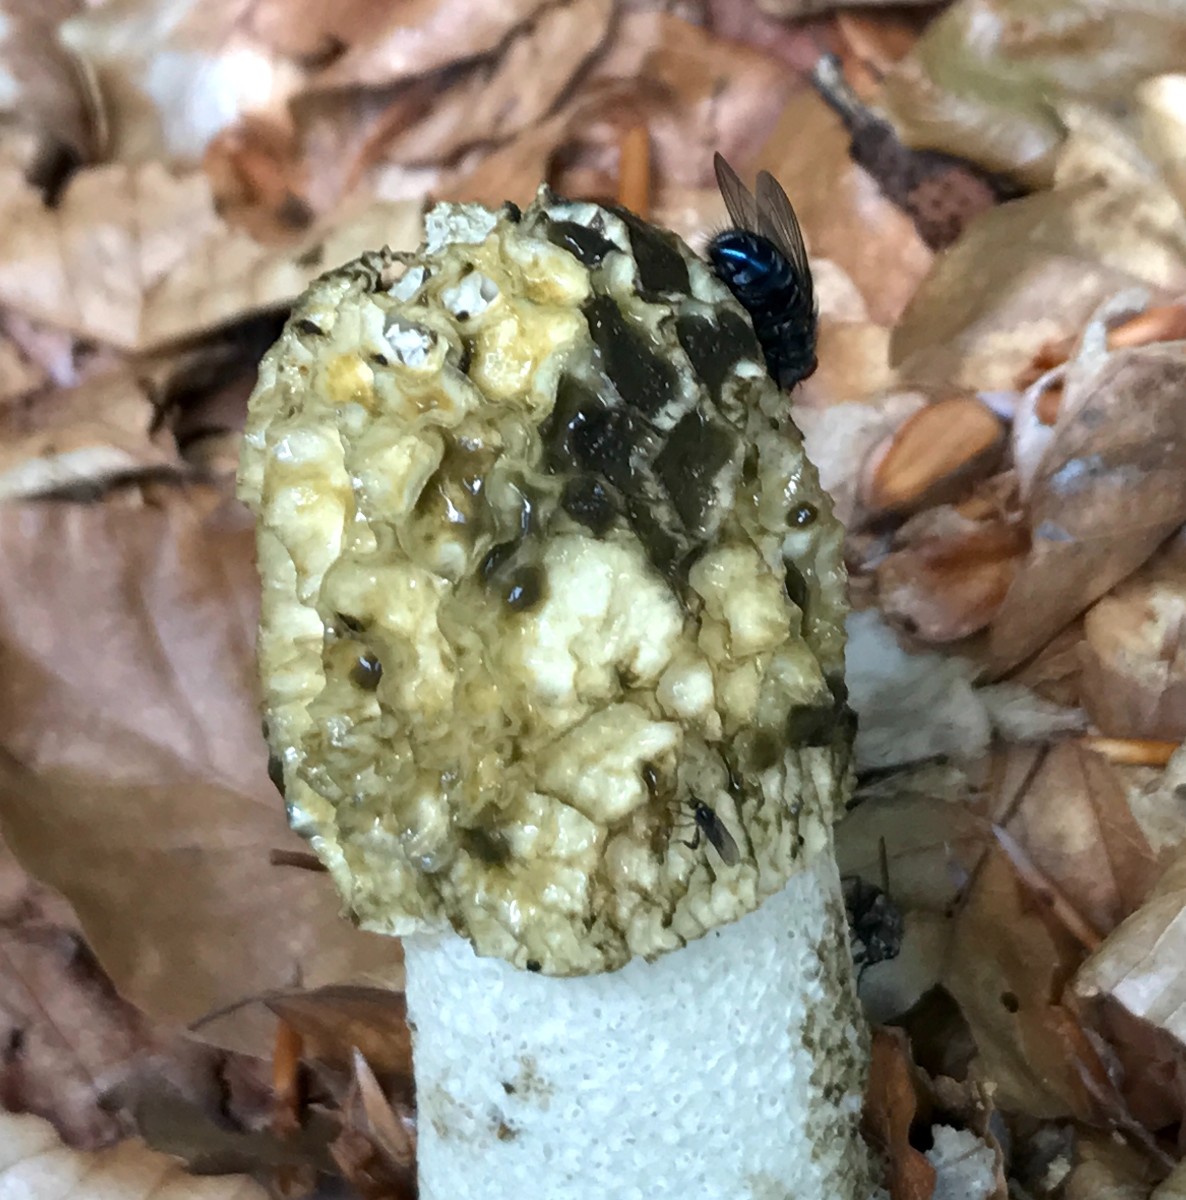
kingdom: Fungi
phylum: Basidiomycota
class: Agaricomycetes
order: Phallales
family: Phallaceae
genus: Phallus
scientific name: Phallus impudicus
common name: almindelig stinksvamp
